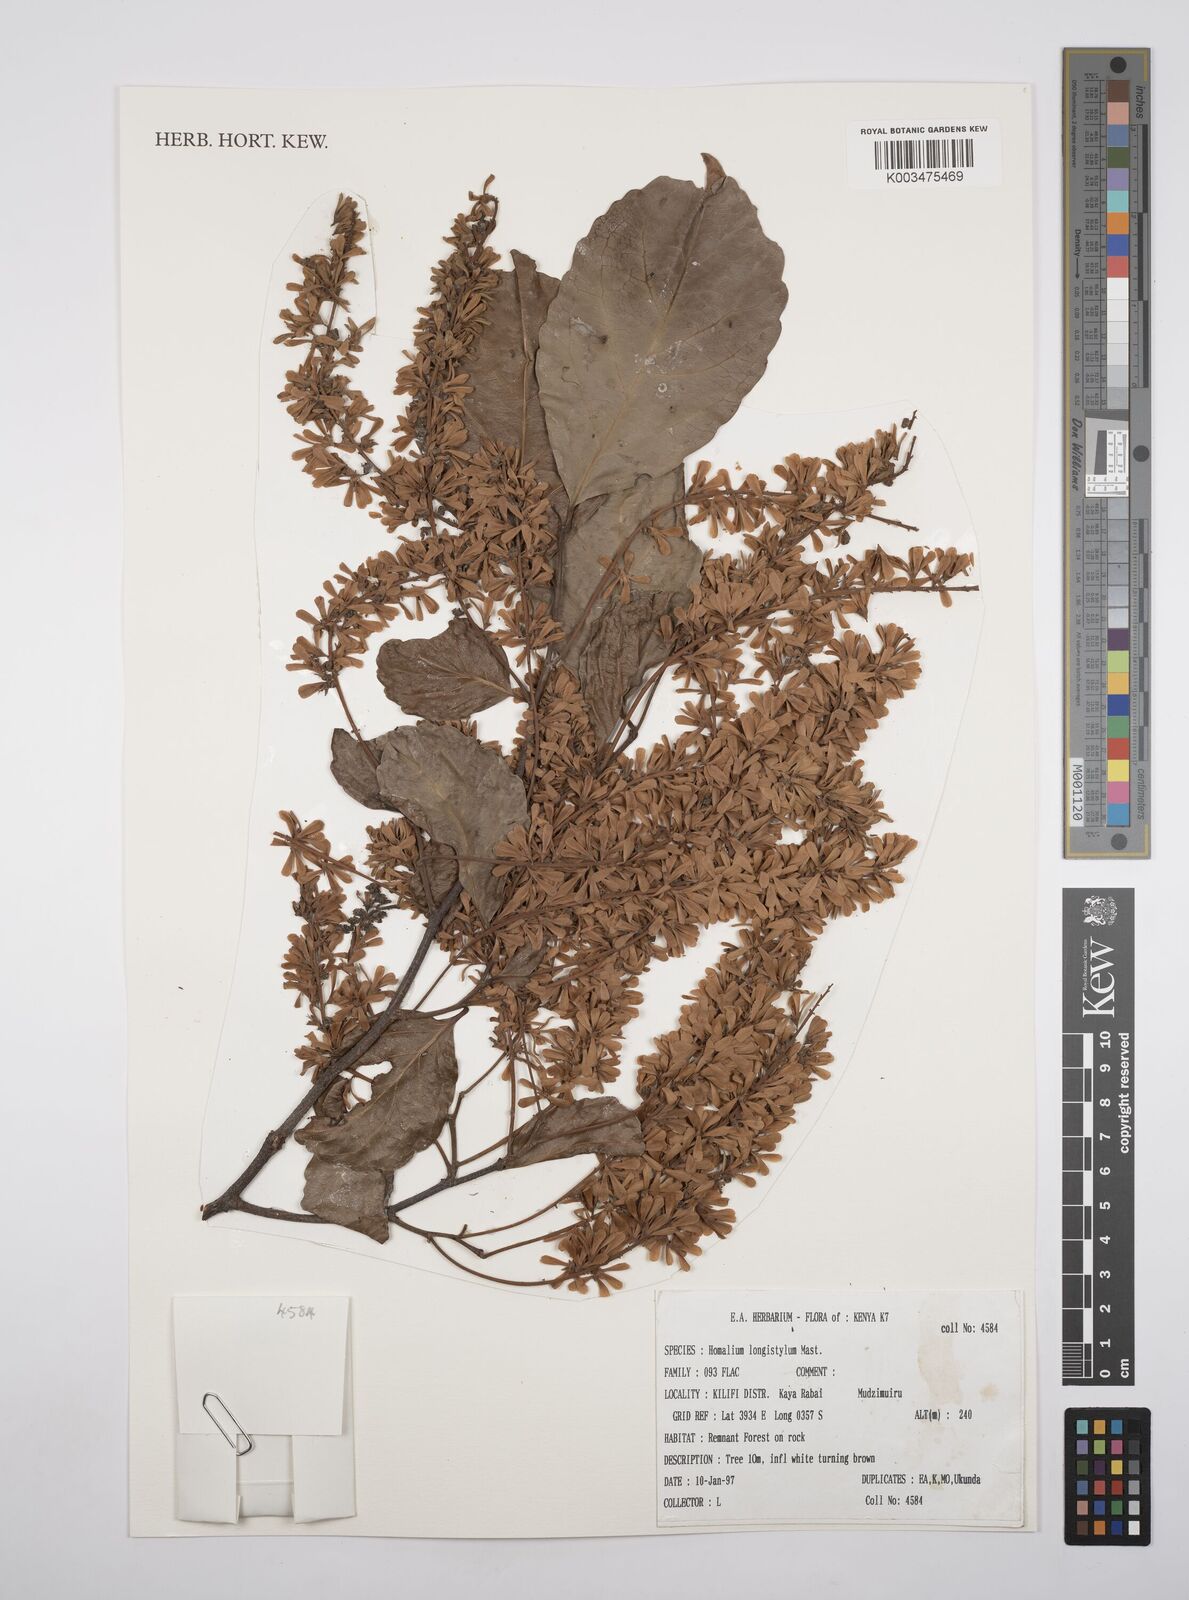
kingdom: Plantae
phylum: Tracheophyta
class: Magnoliopsida
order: Malpighiales
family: Salicaceae
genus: Homalium
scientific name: Homalium longistylum
